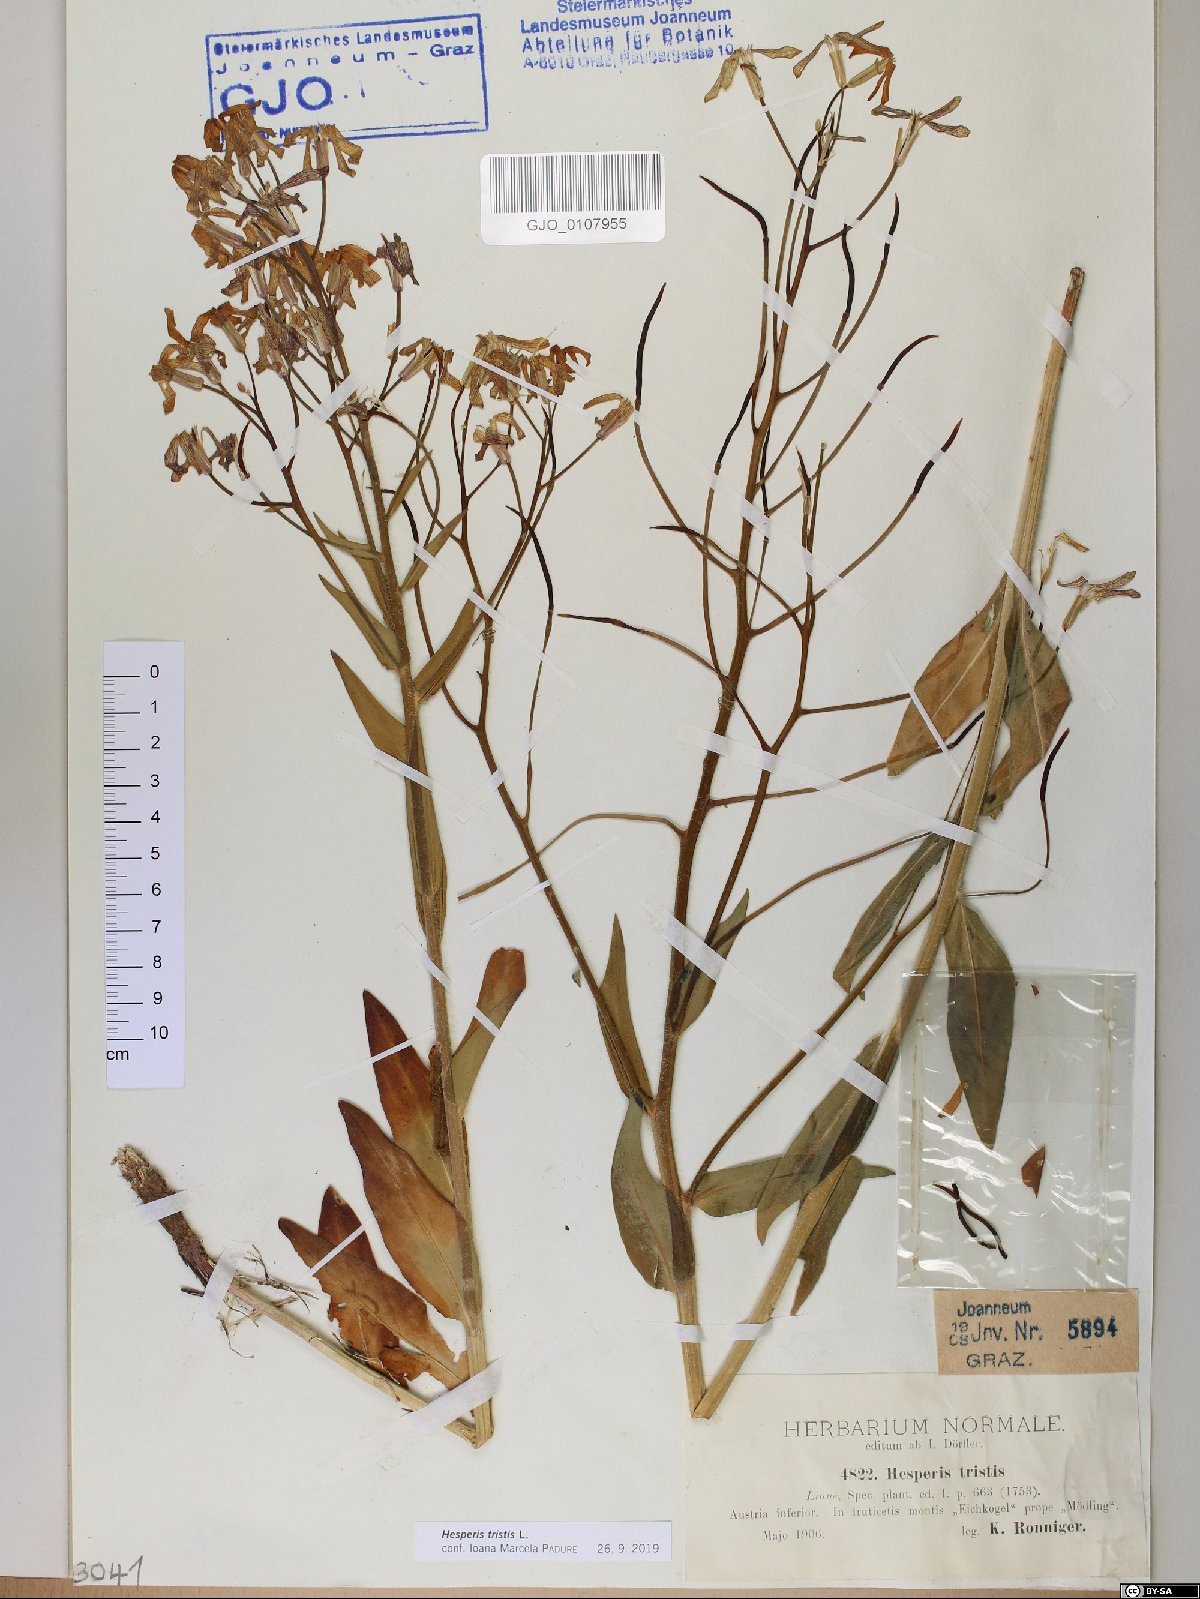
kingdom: Plantae
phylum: Tracheophyta
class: Magnoliopsida
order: Brassicales
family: Brassicaceae
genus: Hesperis
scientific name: Hesperis tristis
